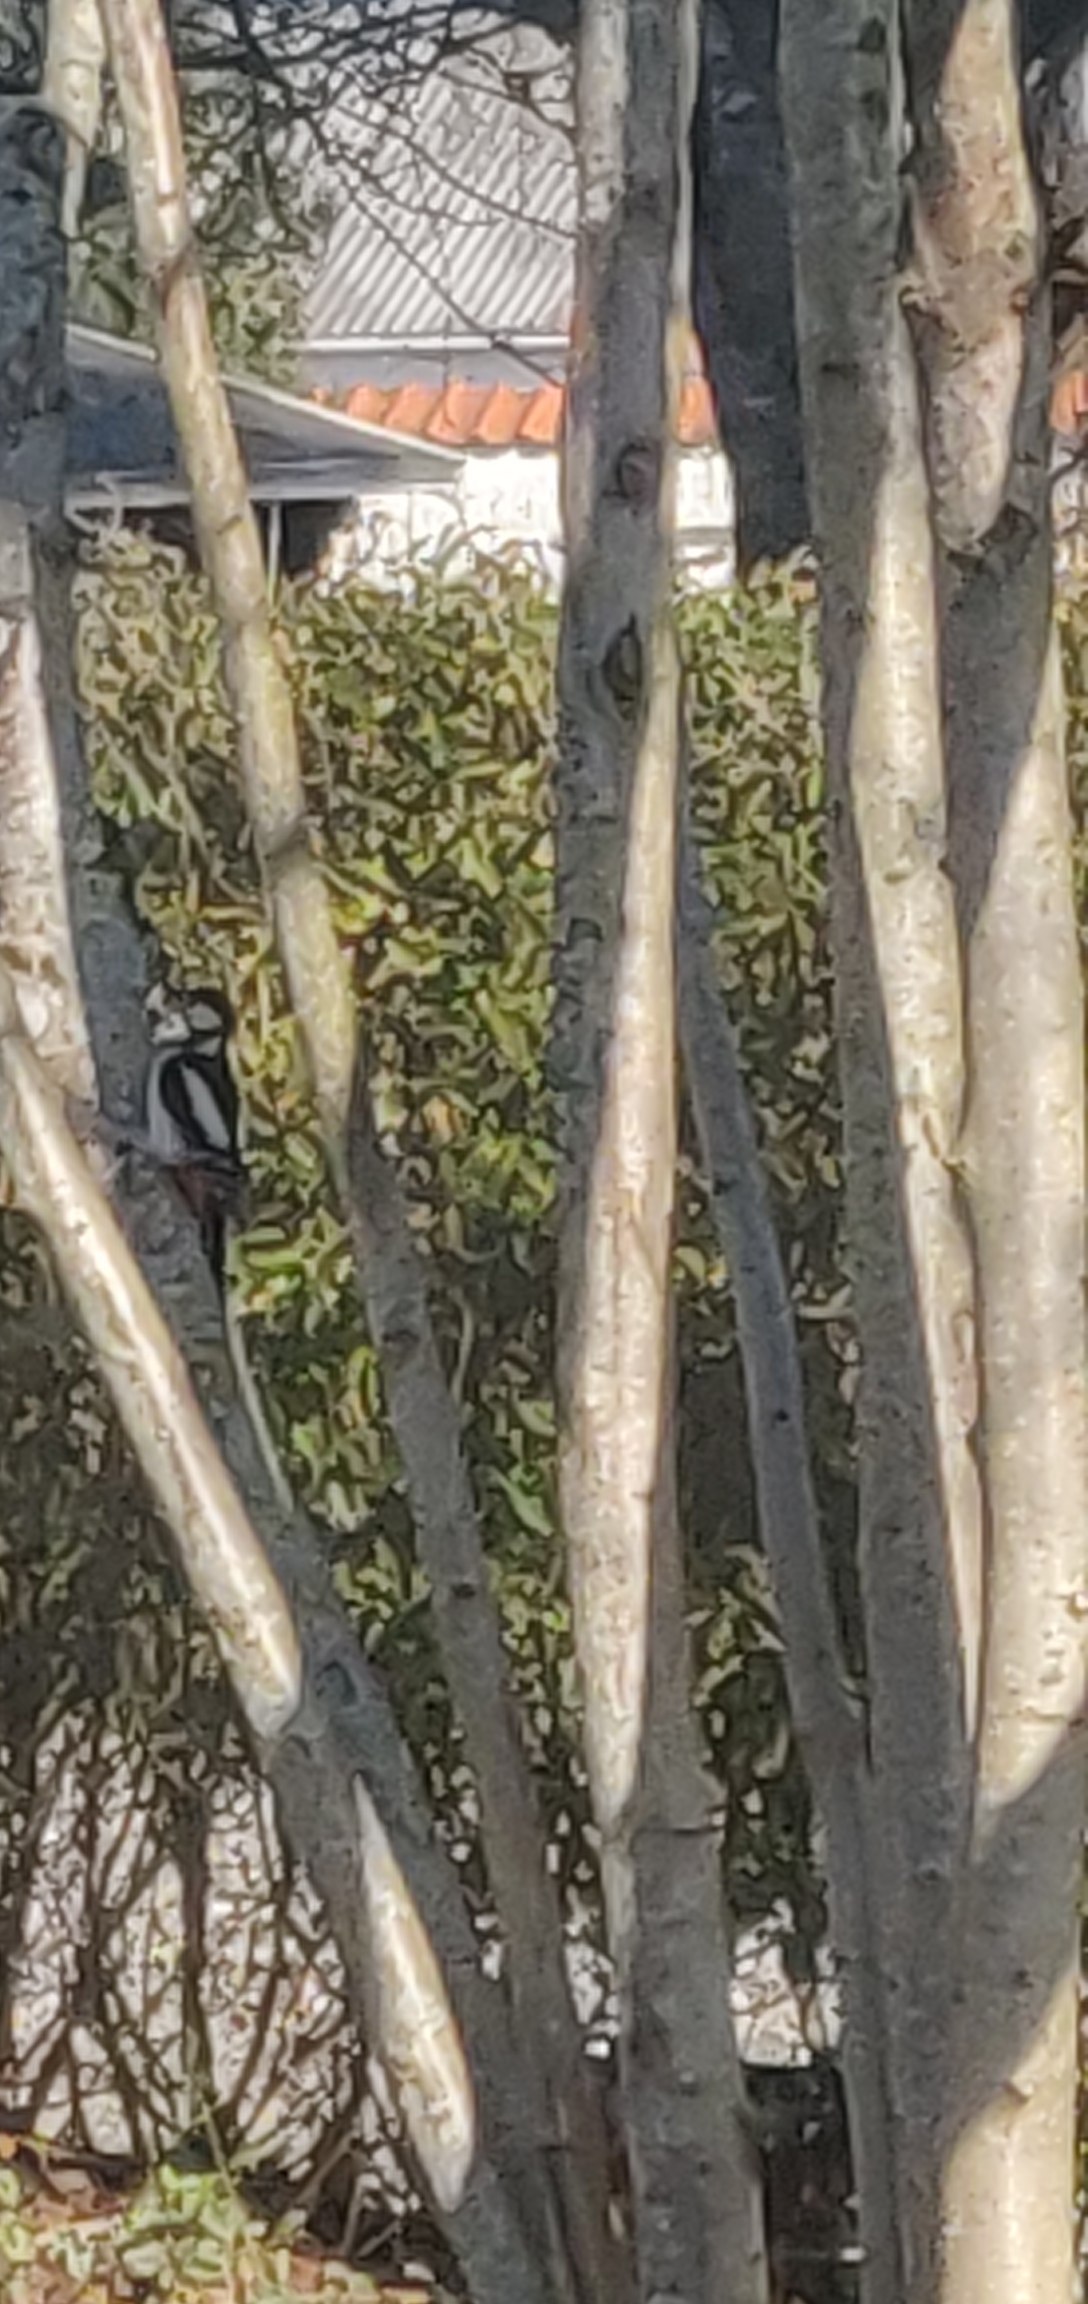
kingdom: Animalia
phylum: Chordata
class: Aves
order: Piciformes
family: Picidae
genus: Dendrocopos
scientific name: Dendrocopos major
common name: Stor flagspætte
